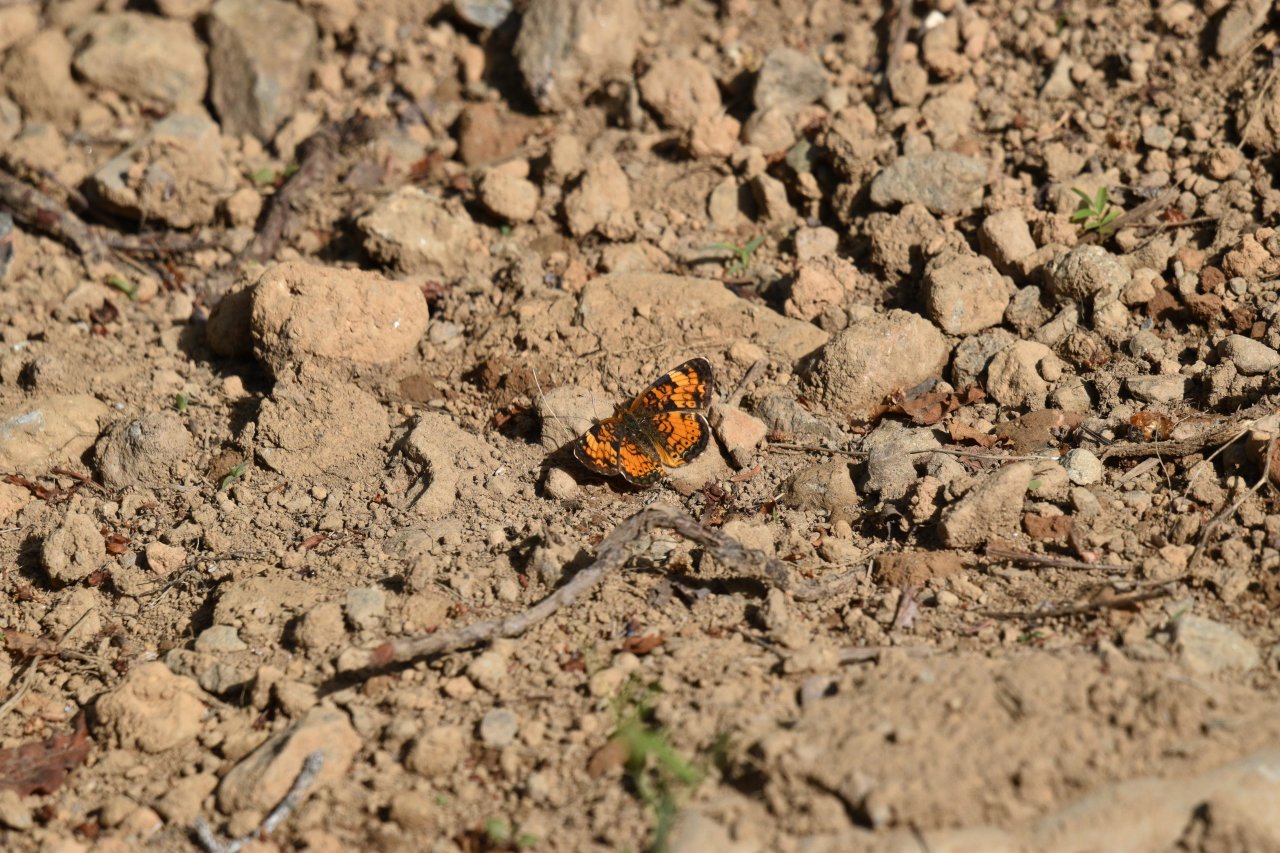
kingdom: Animalia
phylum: Arthropoda
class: Insecta
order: Lepidoptera
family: Nymphalidae
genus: Phyciodes
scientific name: Phyciodes tharos
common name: Northern Crescent
